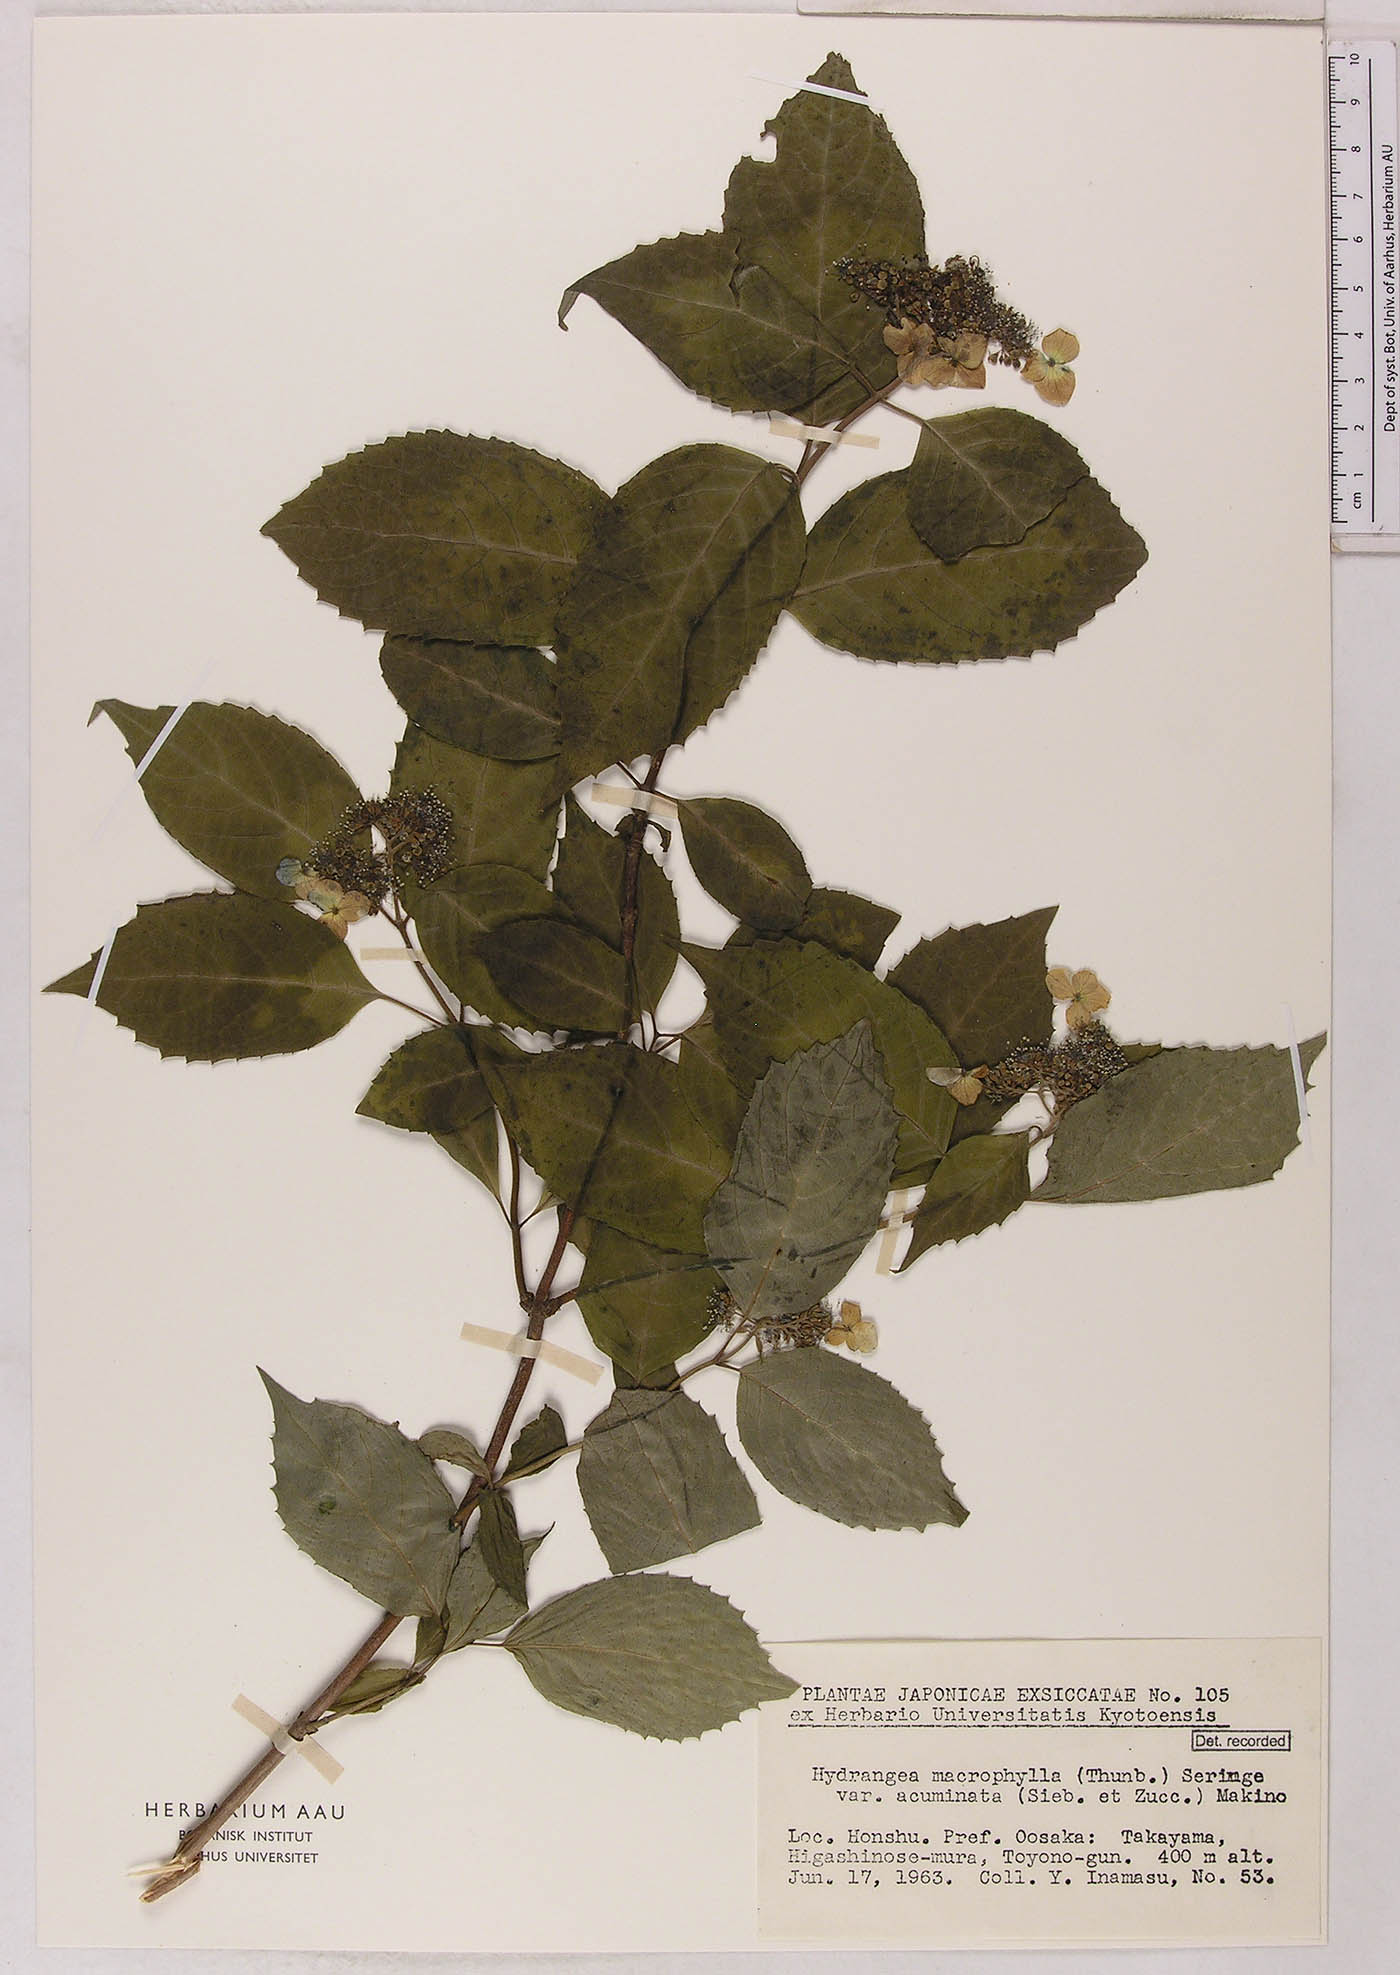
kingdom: Plantae
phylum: Tracheophyta
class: Magnoliopsida
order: Cornales
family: Hydrangeaceae
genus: Hydrangea
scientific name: Hydrangea serrata
